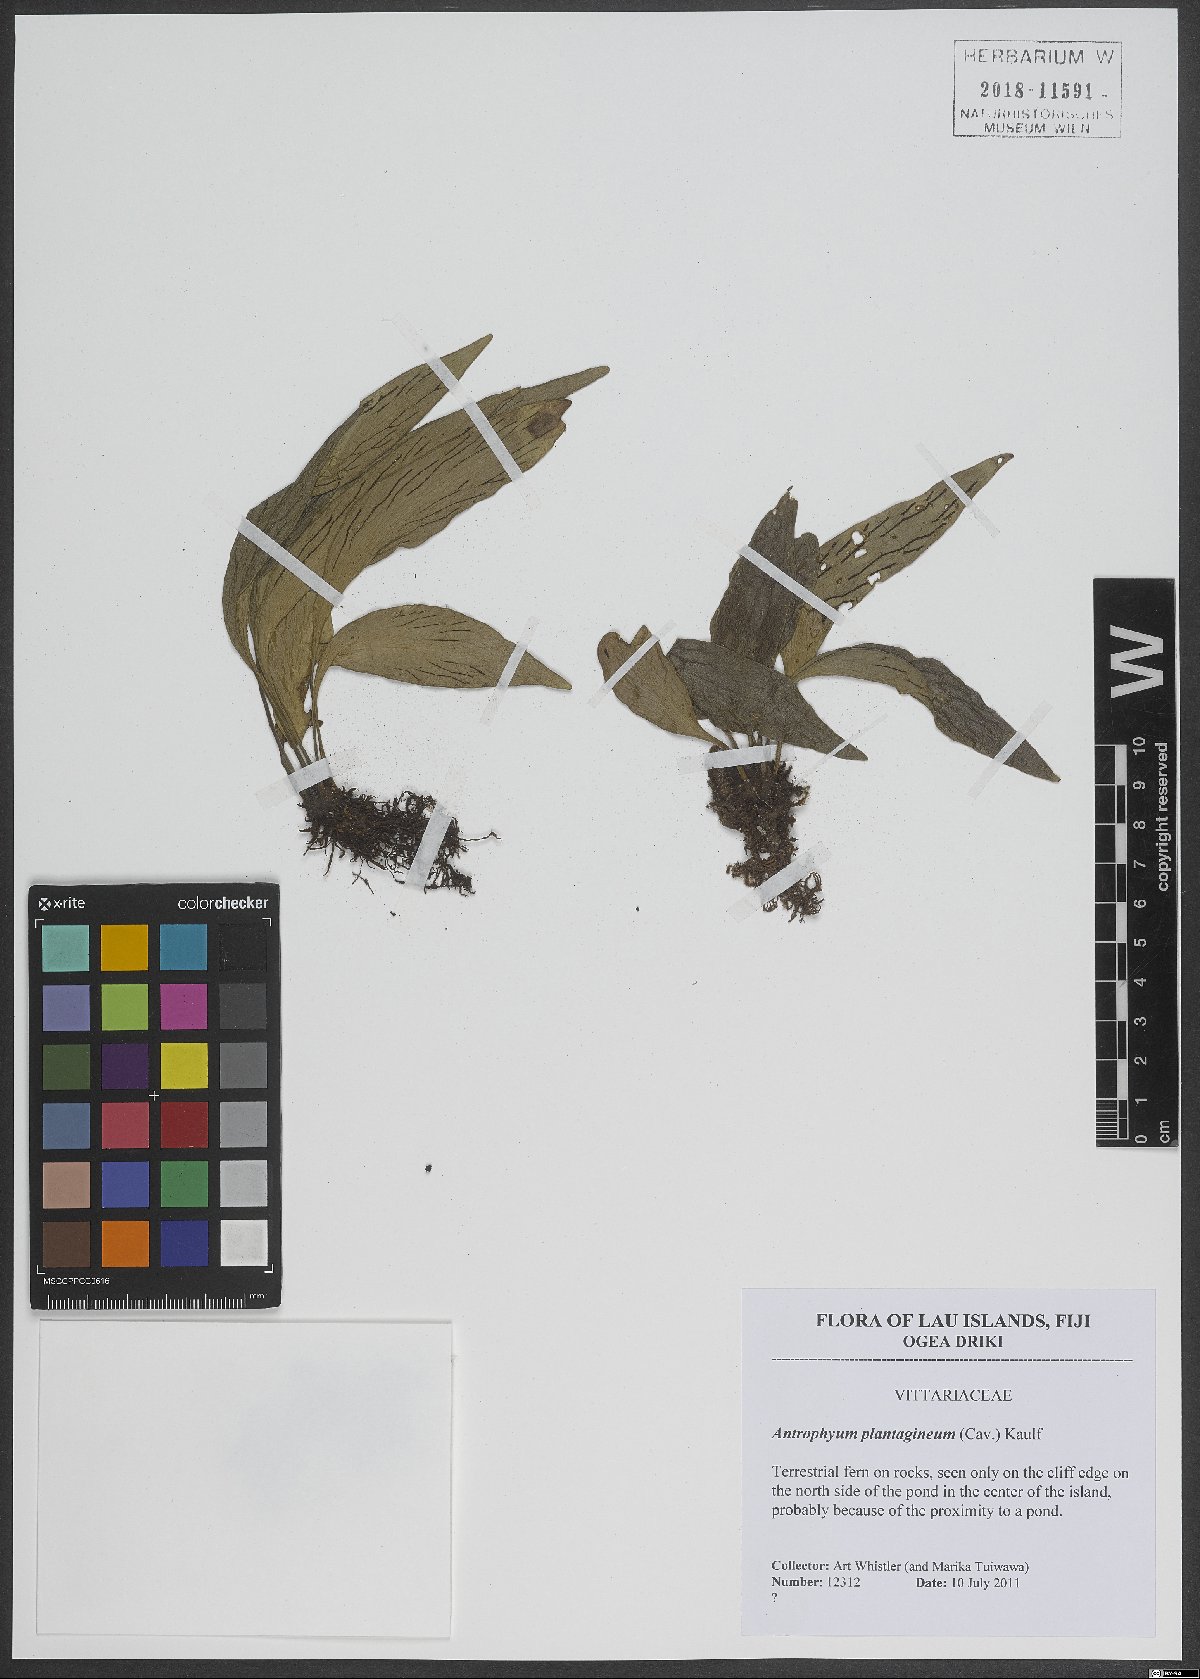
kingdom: Plantae
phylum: Tracheophyta
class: Polypodiopsida
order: Polypodiales
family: Pteridaceae
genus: Antrophyum
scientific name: Antrophyum plantagineum
